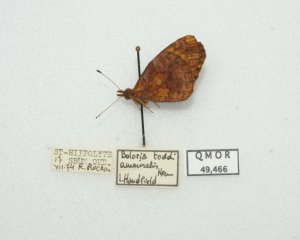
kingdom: Animalia
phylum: Arthropoda
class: Insecta
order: Lepidoptera
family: Nymphalidae
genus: Clossiana
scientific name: Clossiana toddi
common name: Meadow Fritillary
